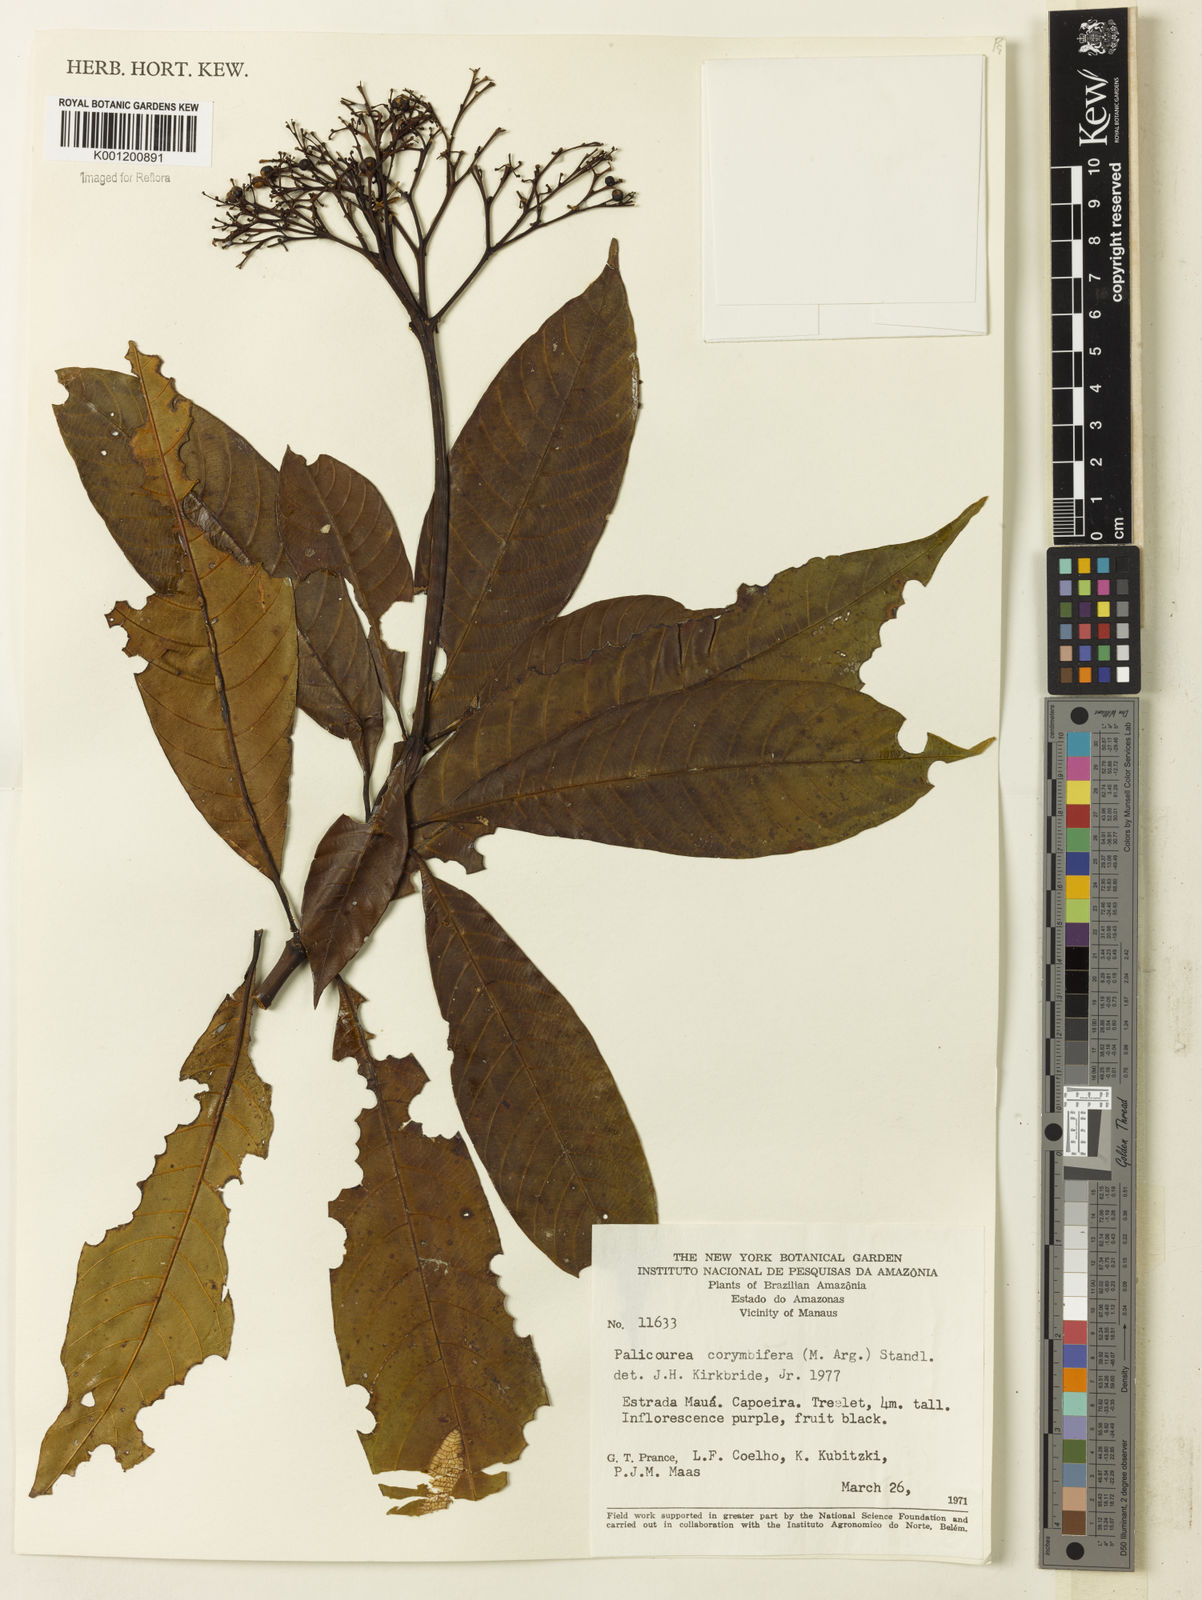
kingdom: Plantae
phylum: Tracheophyta
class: Magnoliopsida
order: Gentianales
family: Rubiaceae
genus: Palicourea
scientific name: Palicourea
